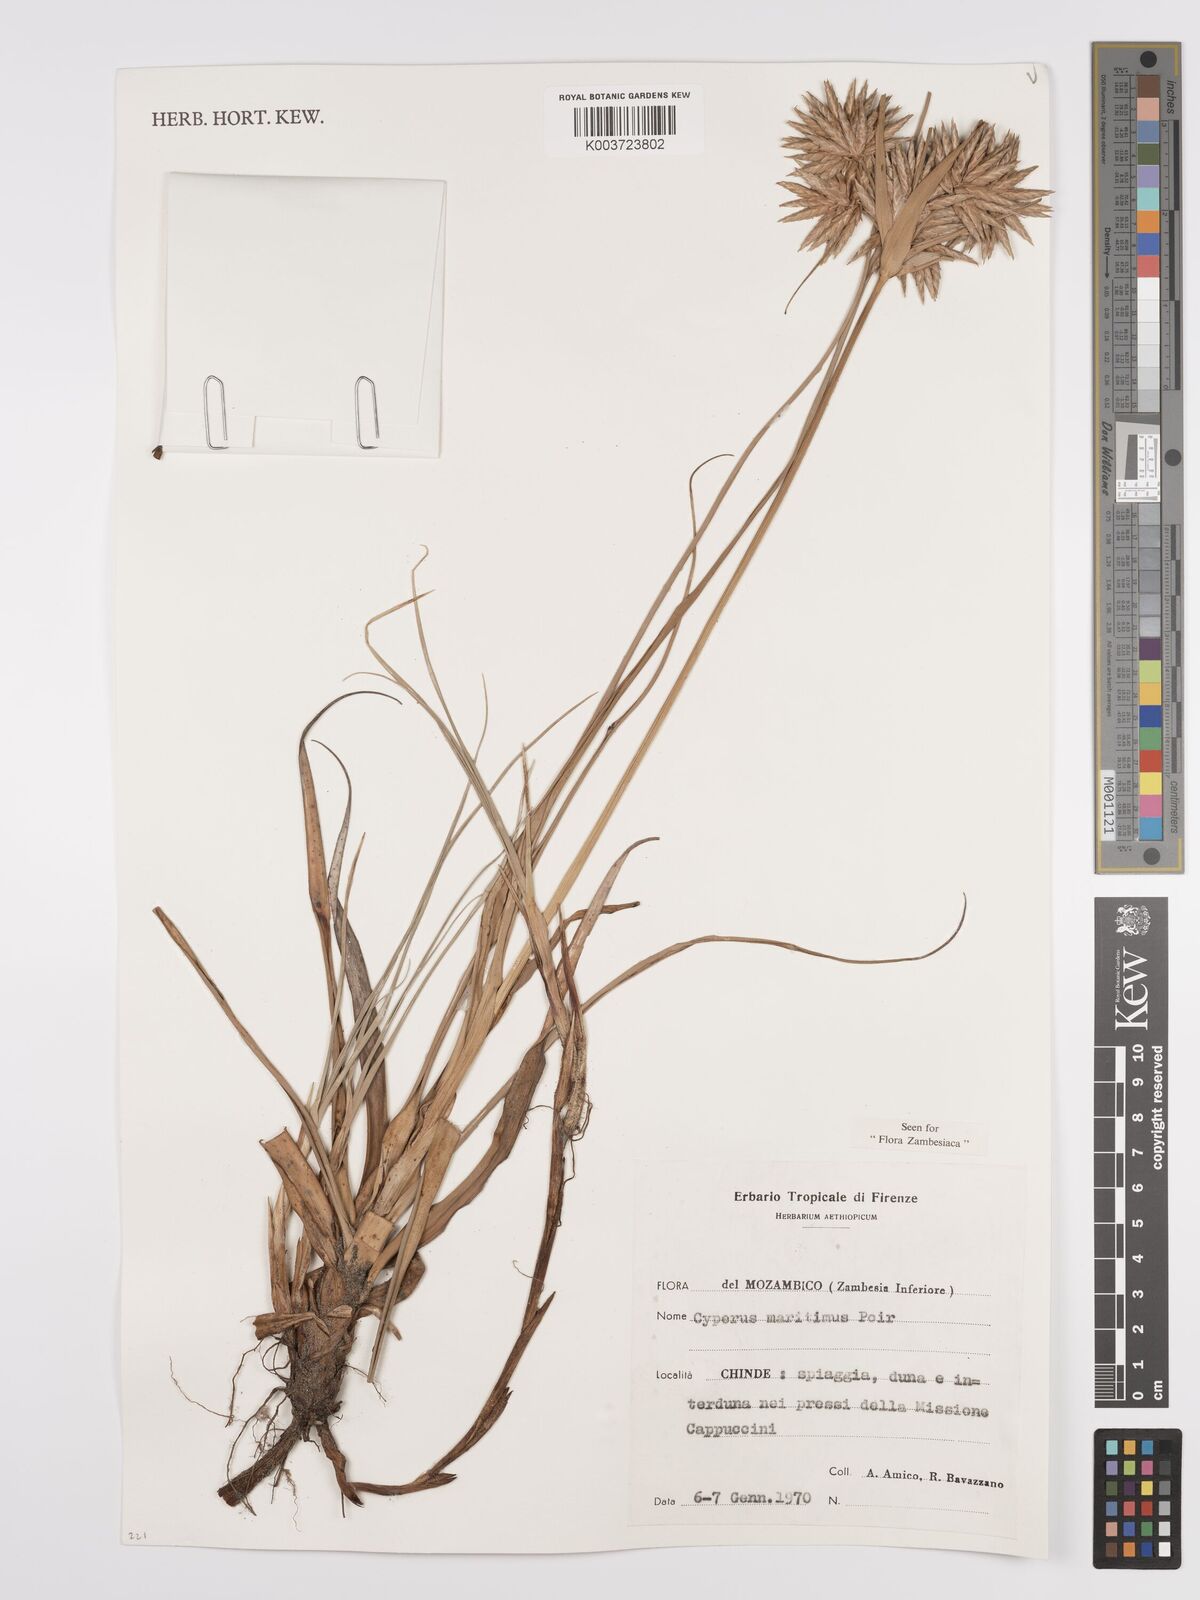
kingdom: Plantae
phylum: Tracheophyta
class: Liliopsida
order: Poales
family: Cyperaceae
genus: Cyperus
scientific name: Cyperus crassipes
